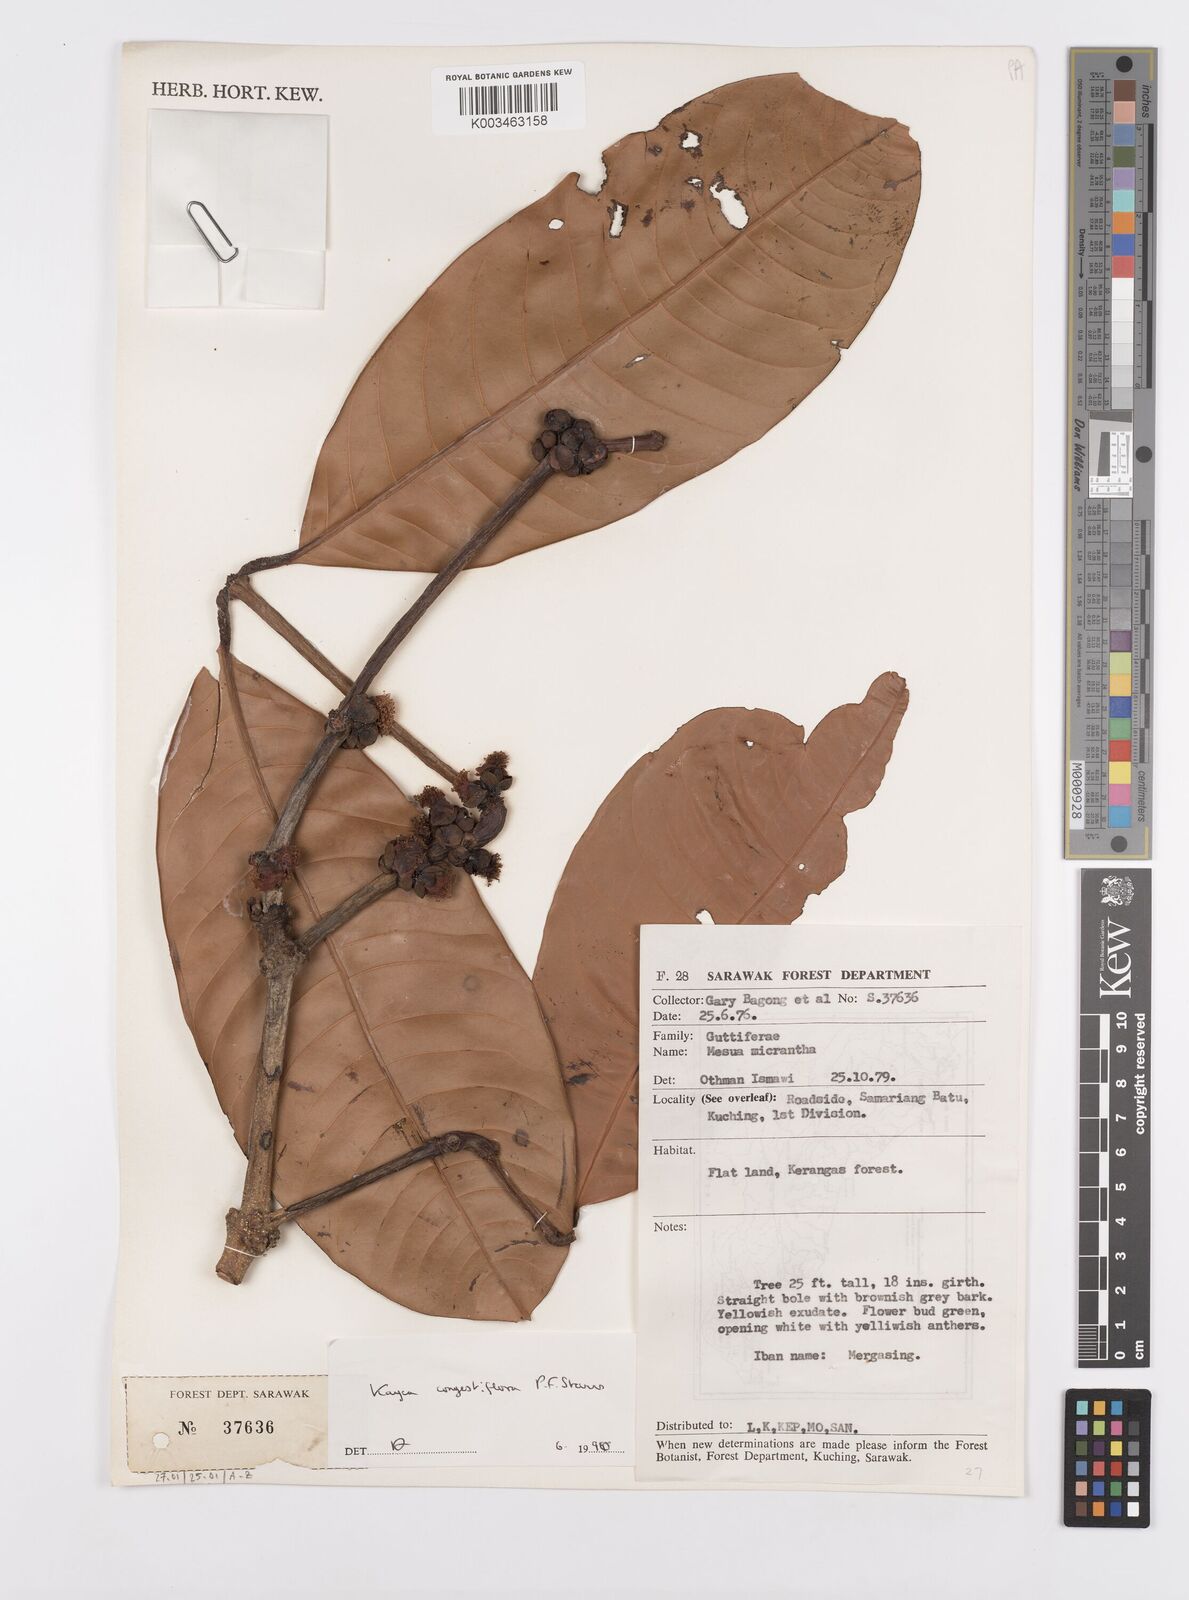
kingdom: Plantae
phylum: Tracheophyta
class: Magnoliopsida
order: Malpighiales
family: Calophyllaceae
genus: Kayea
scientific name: Kayea
